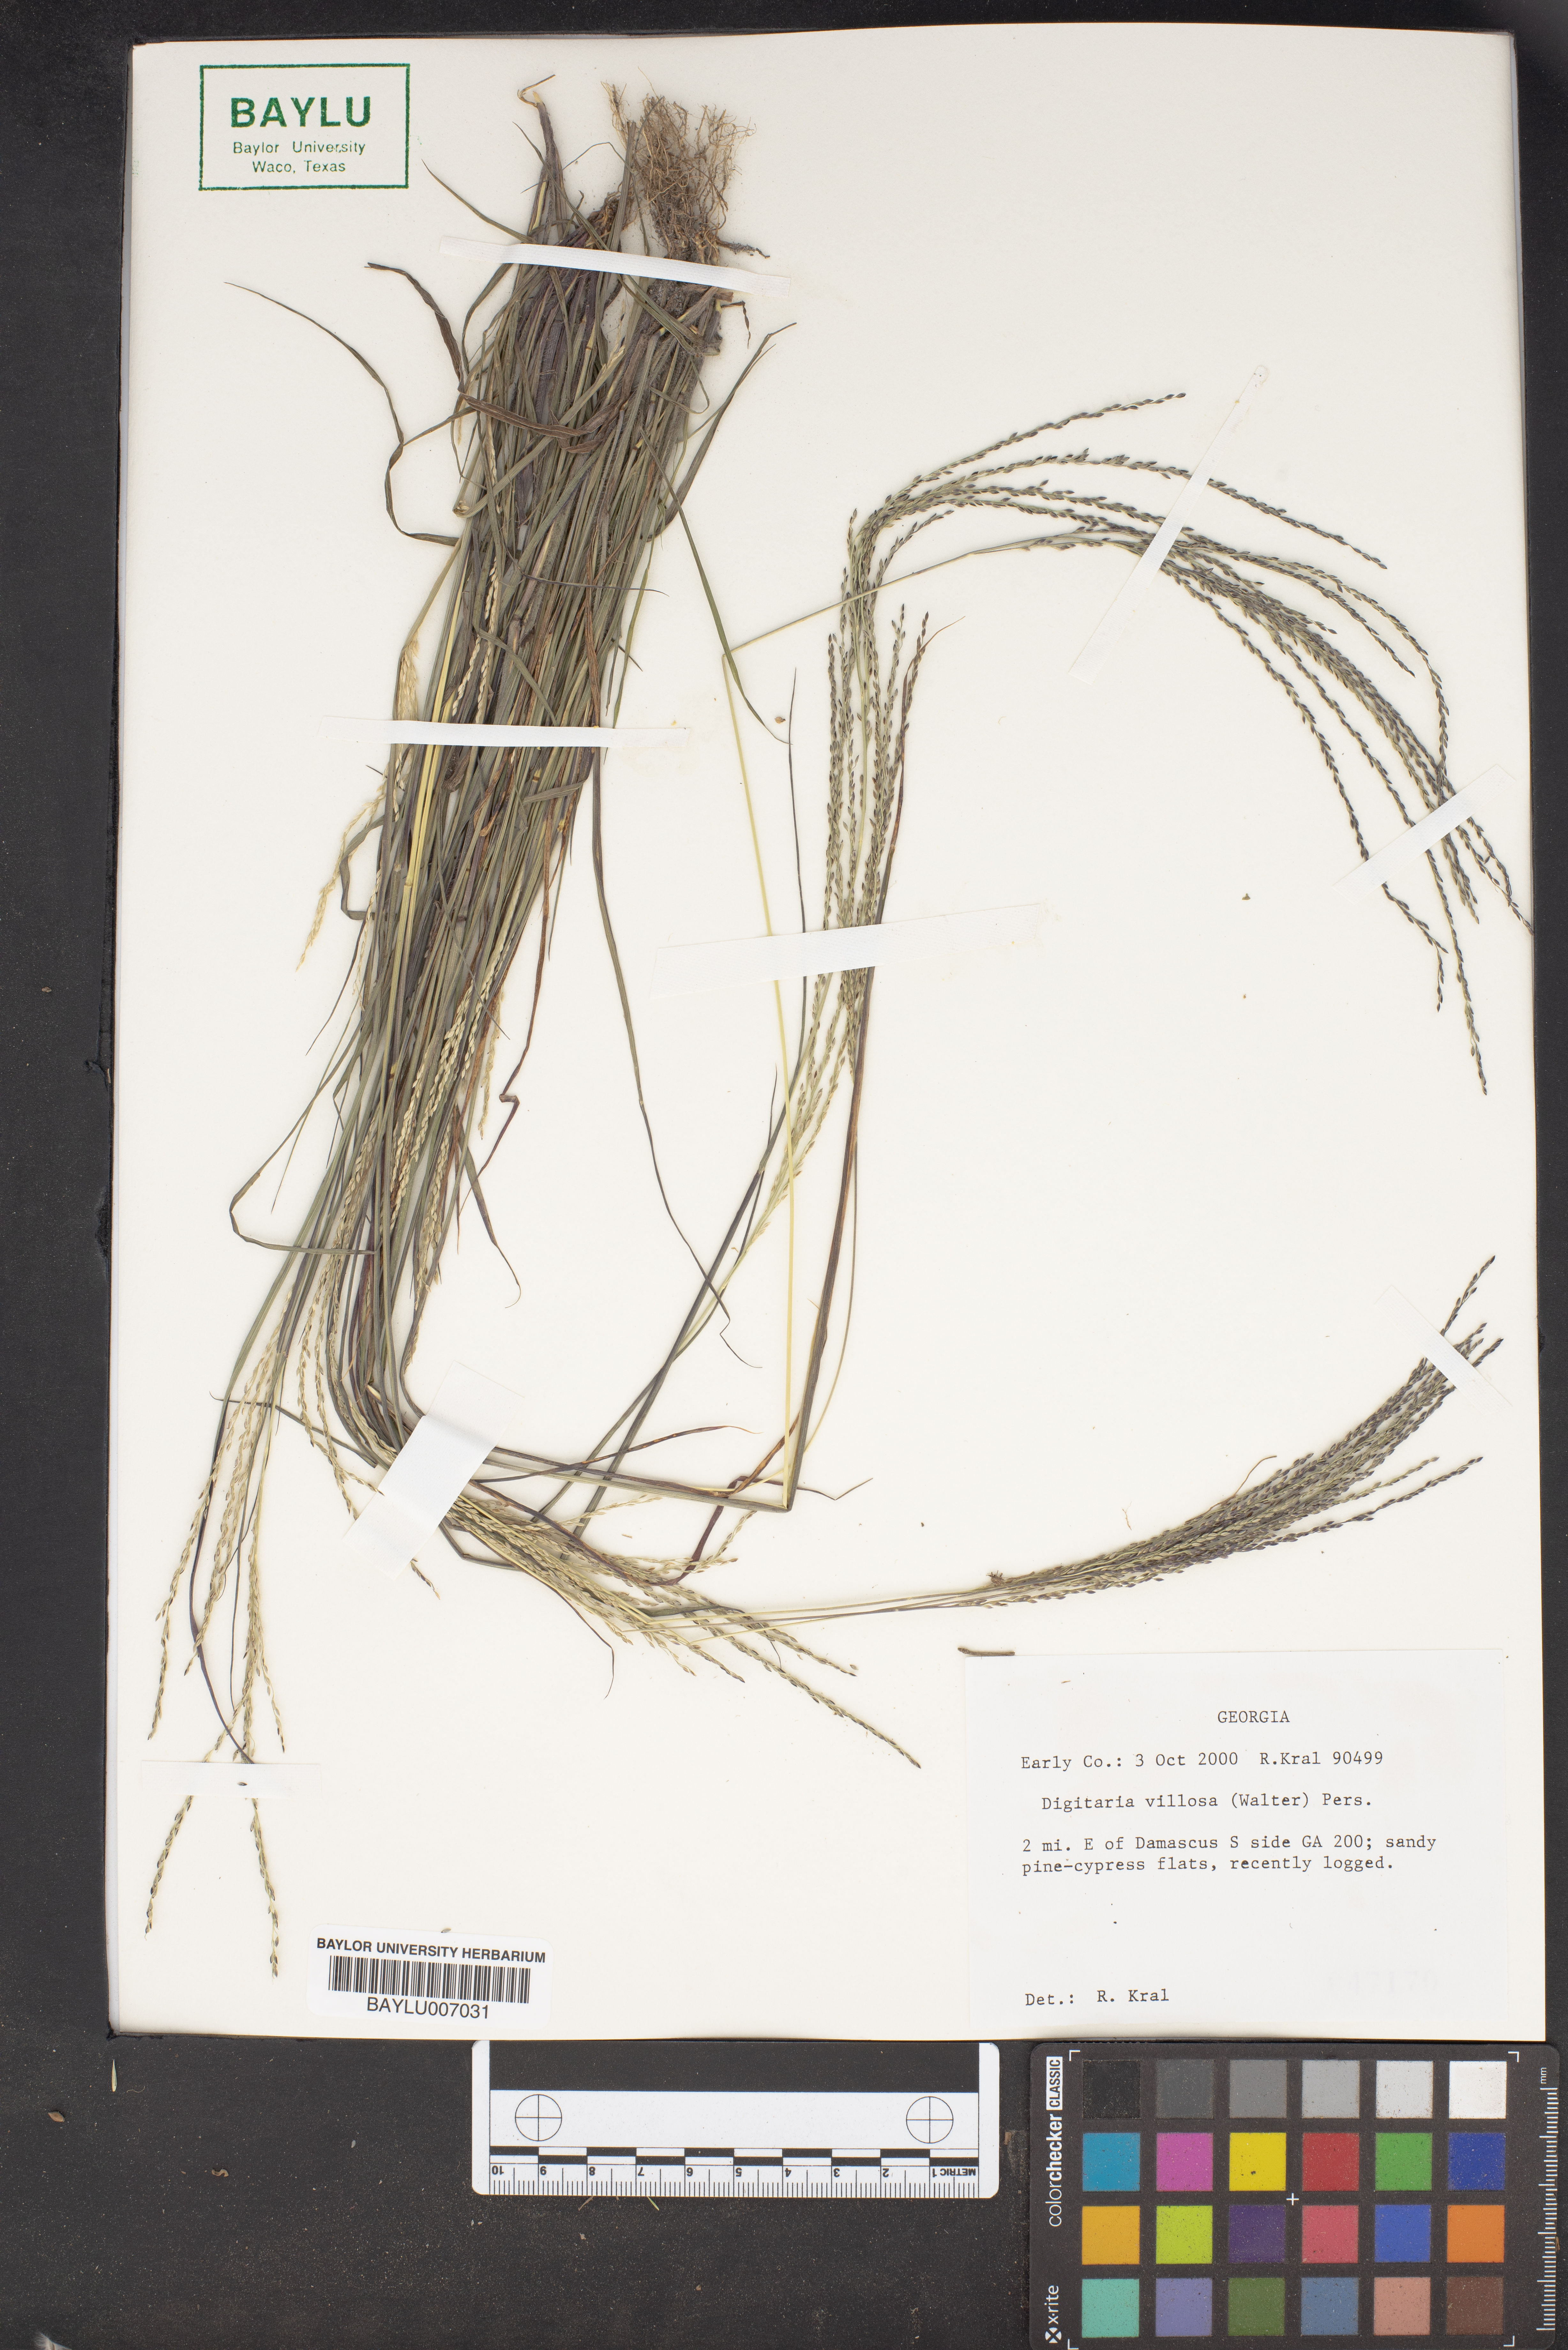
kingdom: Plantae
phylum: Tracheophyta
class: Liliopsida
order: Poales
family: Poaceae
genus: Digitaria
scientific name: Digitaria villosa
